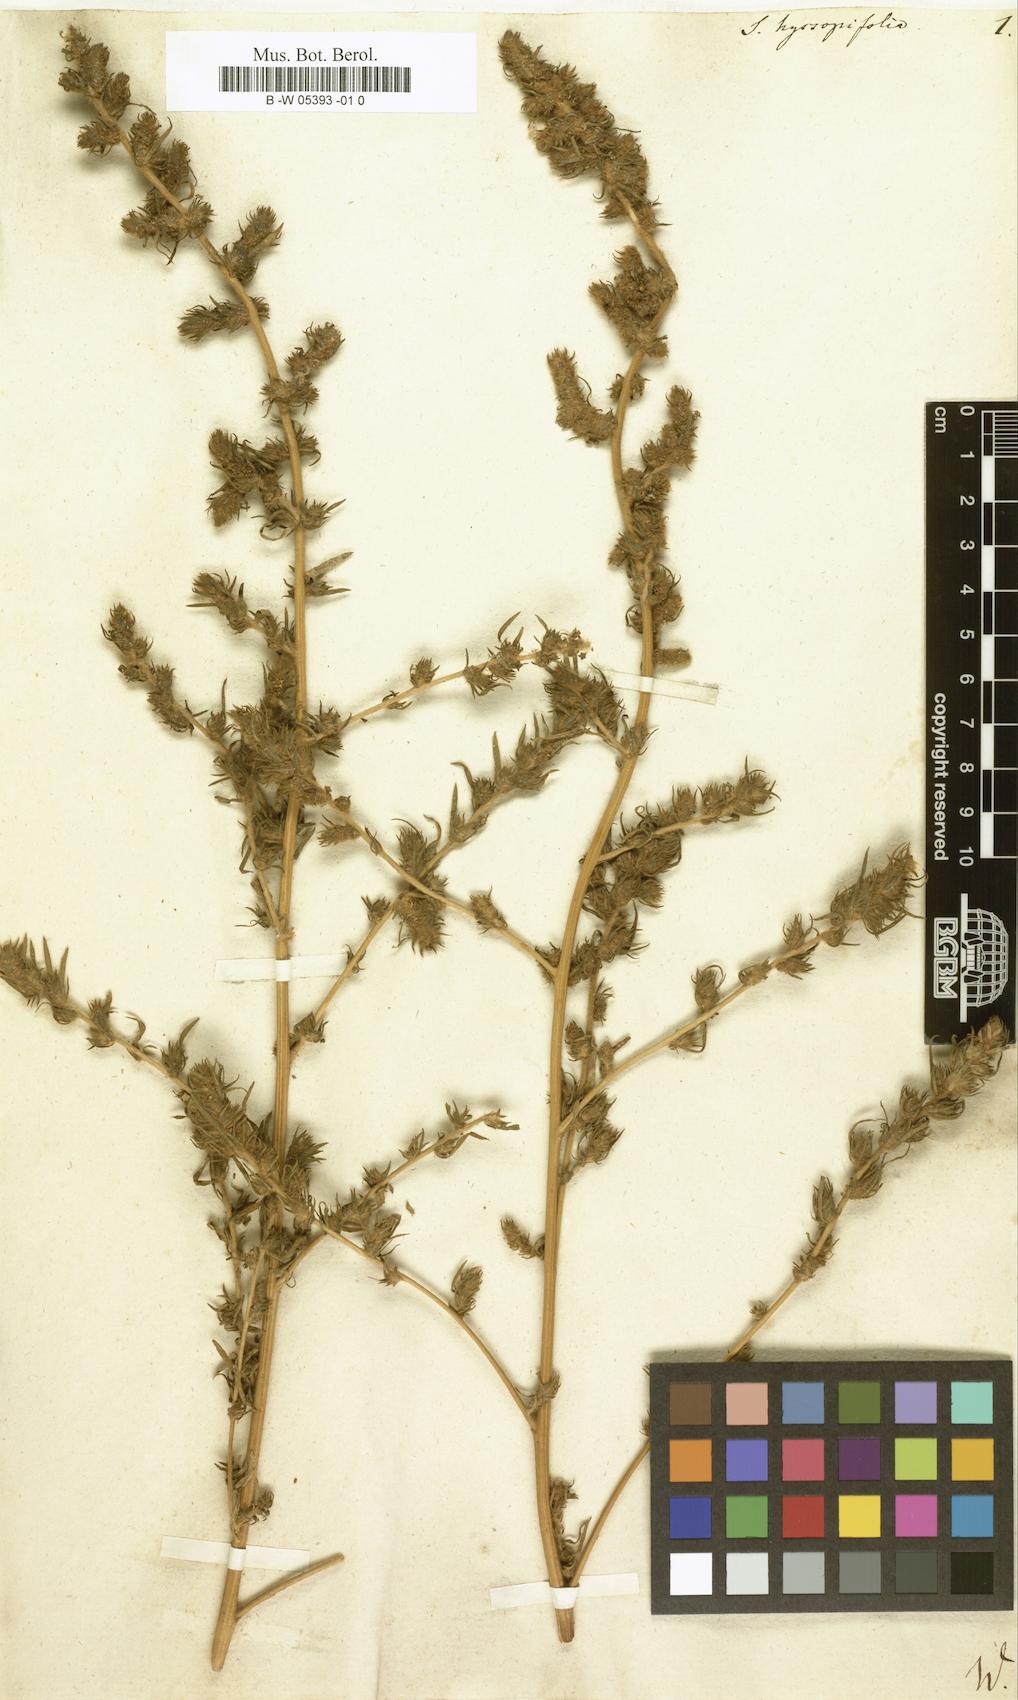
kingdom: Plantae
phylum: Tracheophyta
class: Magnoliopsida
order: Caryophyllales
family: Amaranthaceae
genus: Bassia
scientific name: Bassia hyssopifolia
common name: Fivehorn smotherweed
